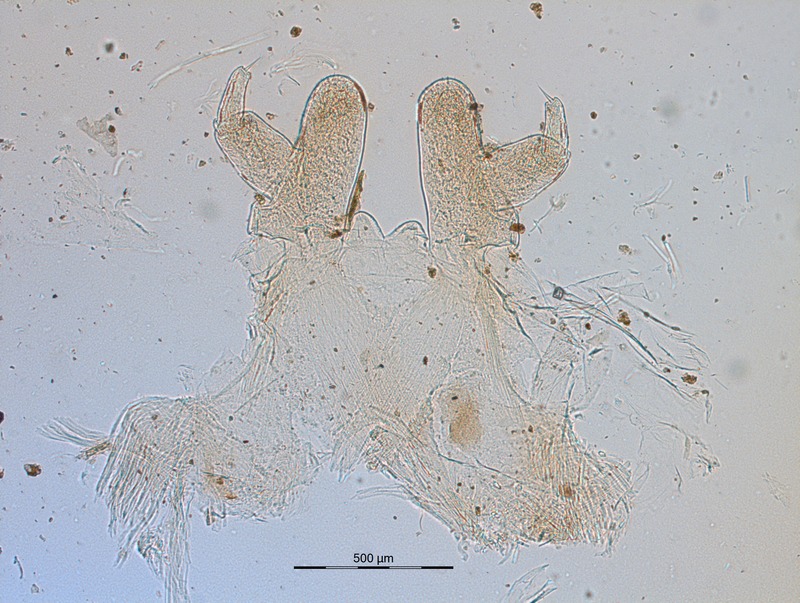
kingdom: Animalia
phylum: Arthropoda
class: Diplopoda
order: Glomerida
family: Glomeridellidae
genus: Typhloglomeris
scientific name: Typhloglomeris
